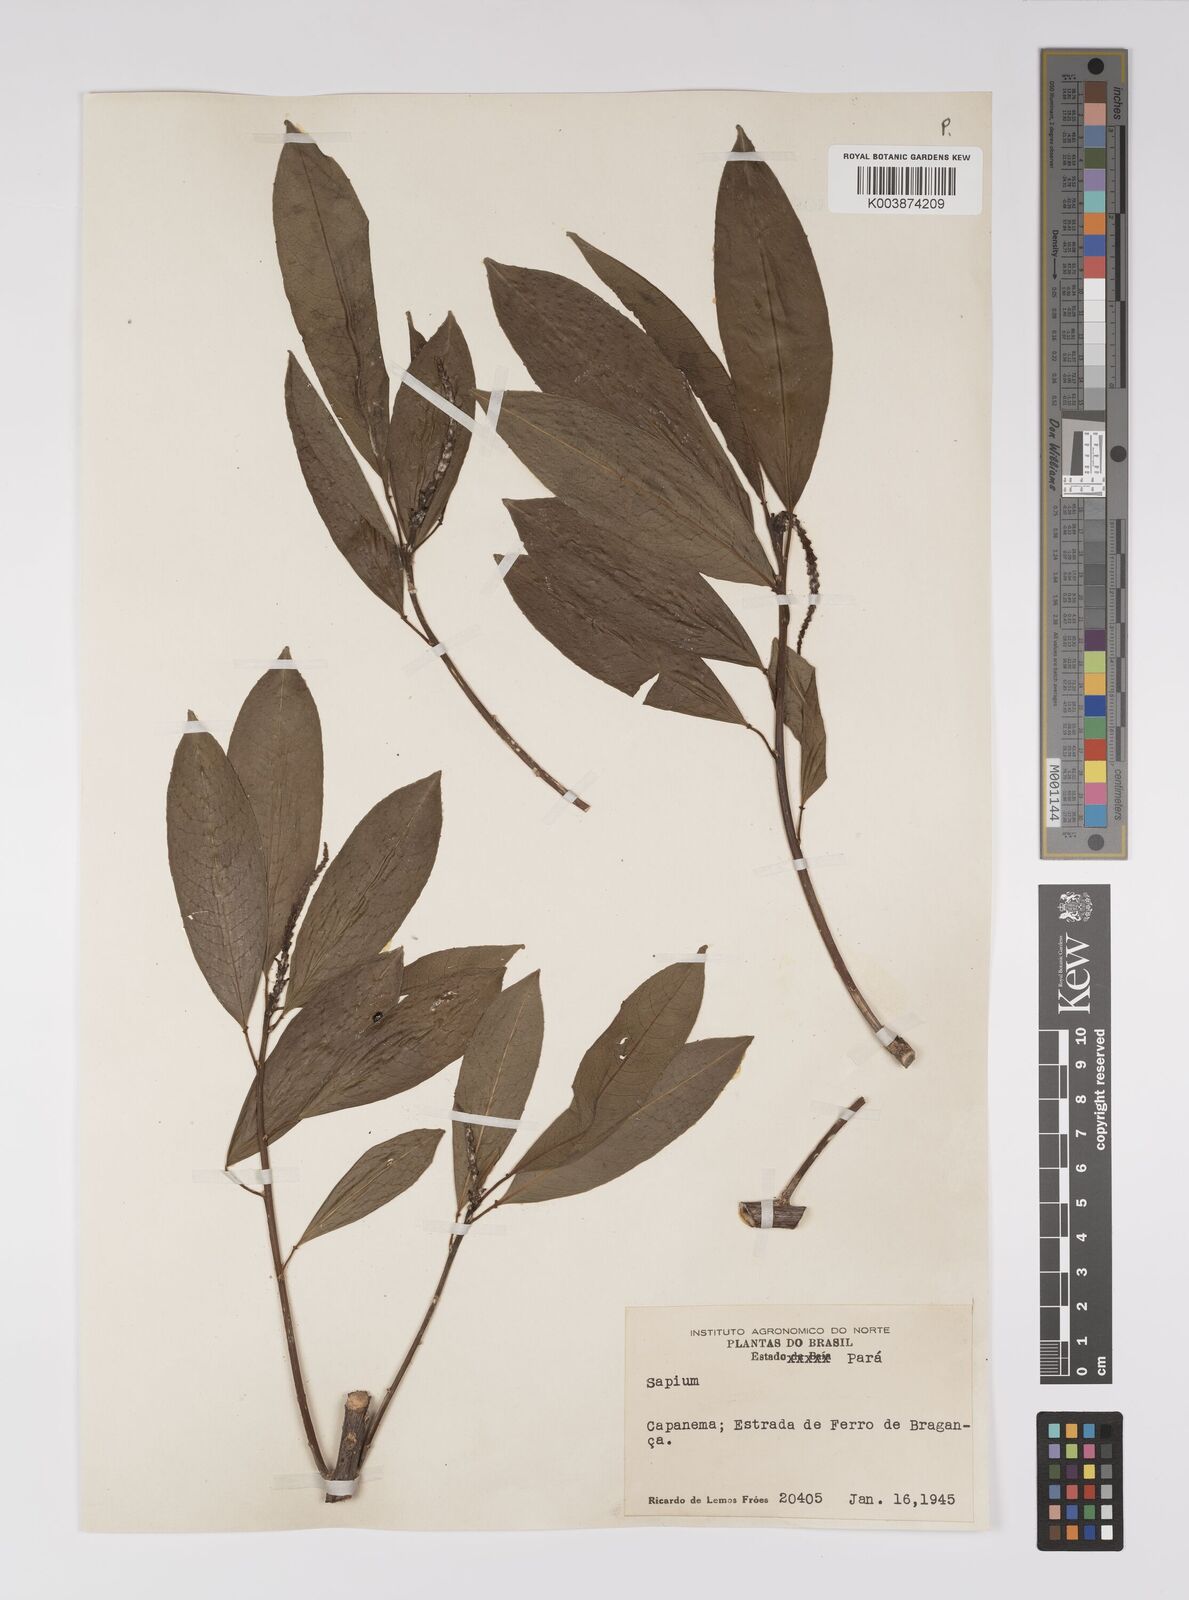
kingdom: Plantae
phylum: Tracheophyta
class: Magnoliopsida
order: Malpighiales
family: Euphorbiaceae
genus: Sapium
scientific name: Sapium
